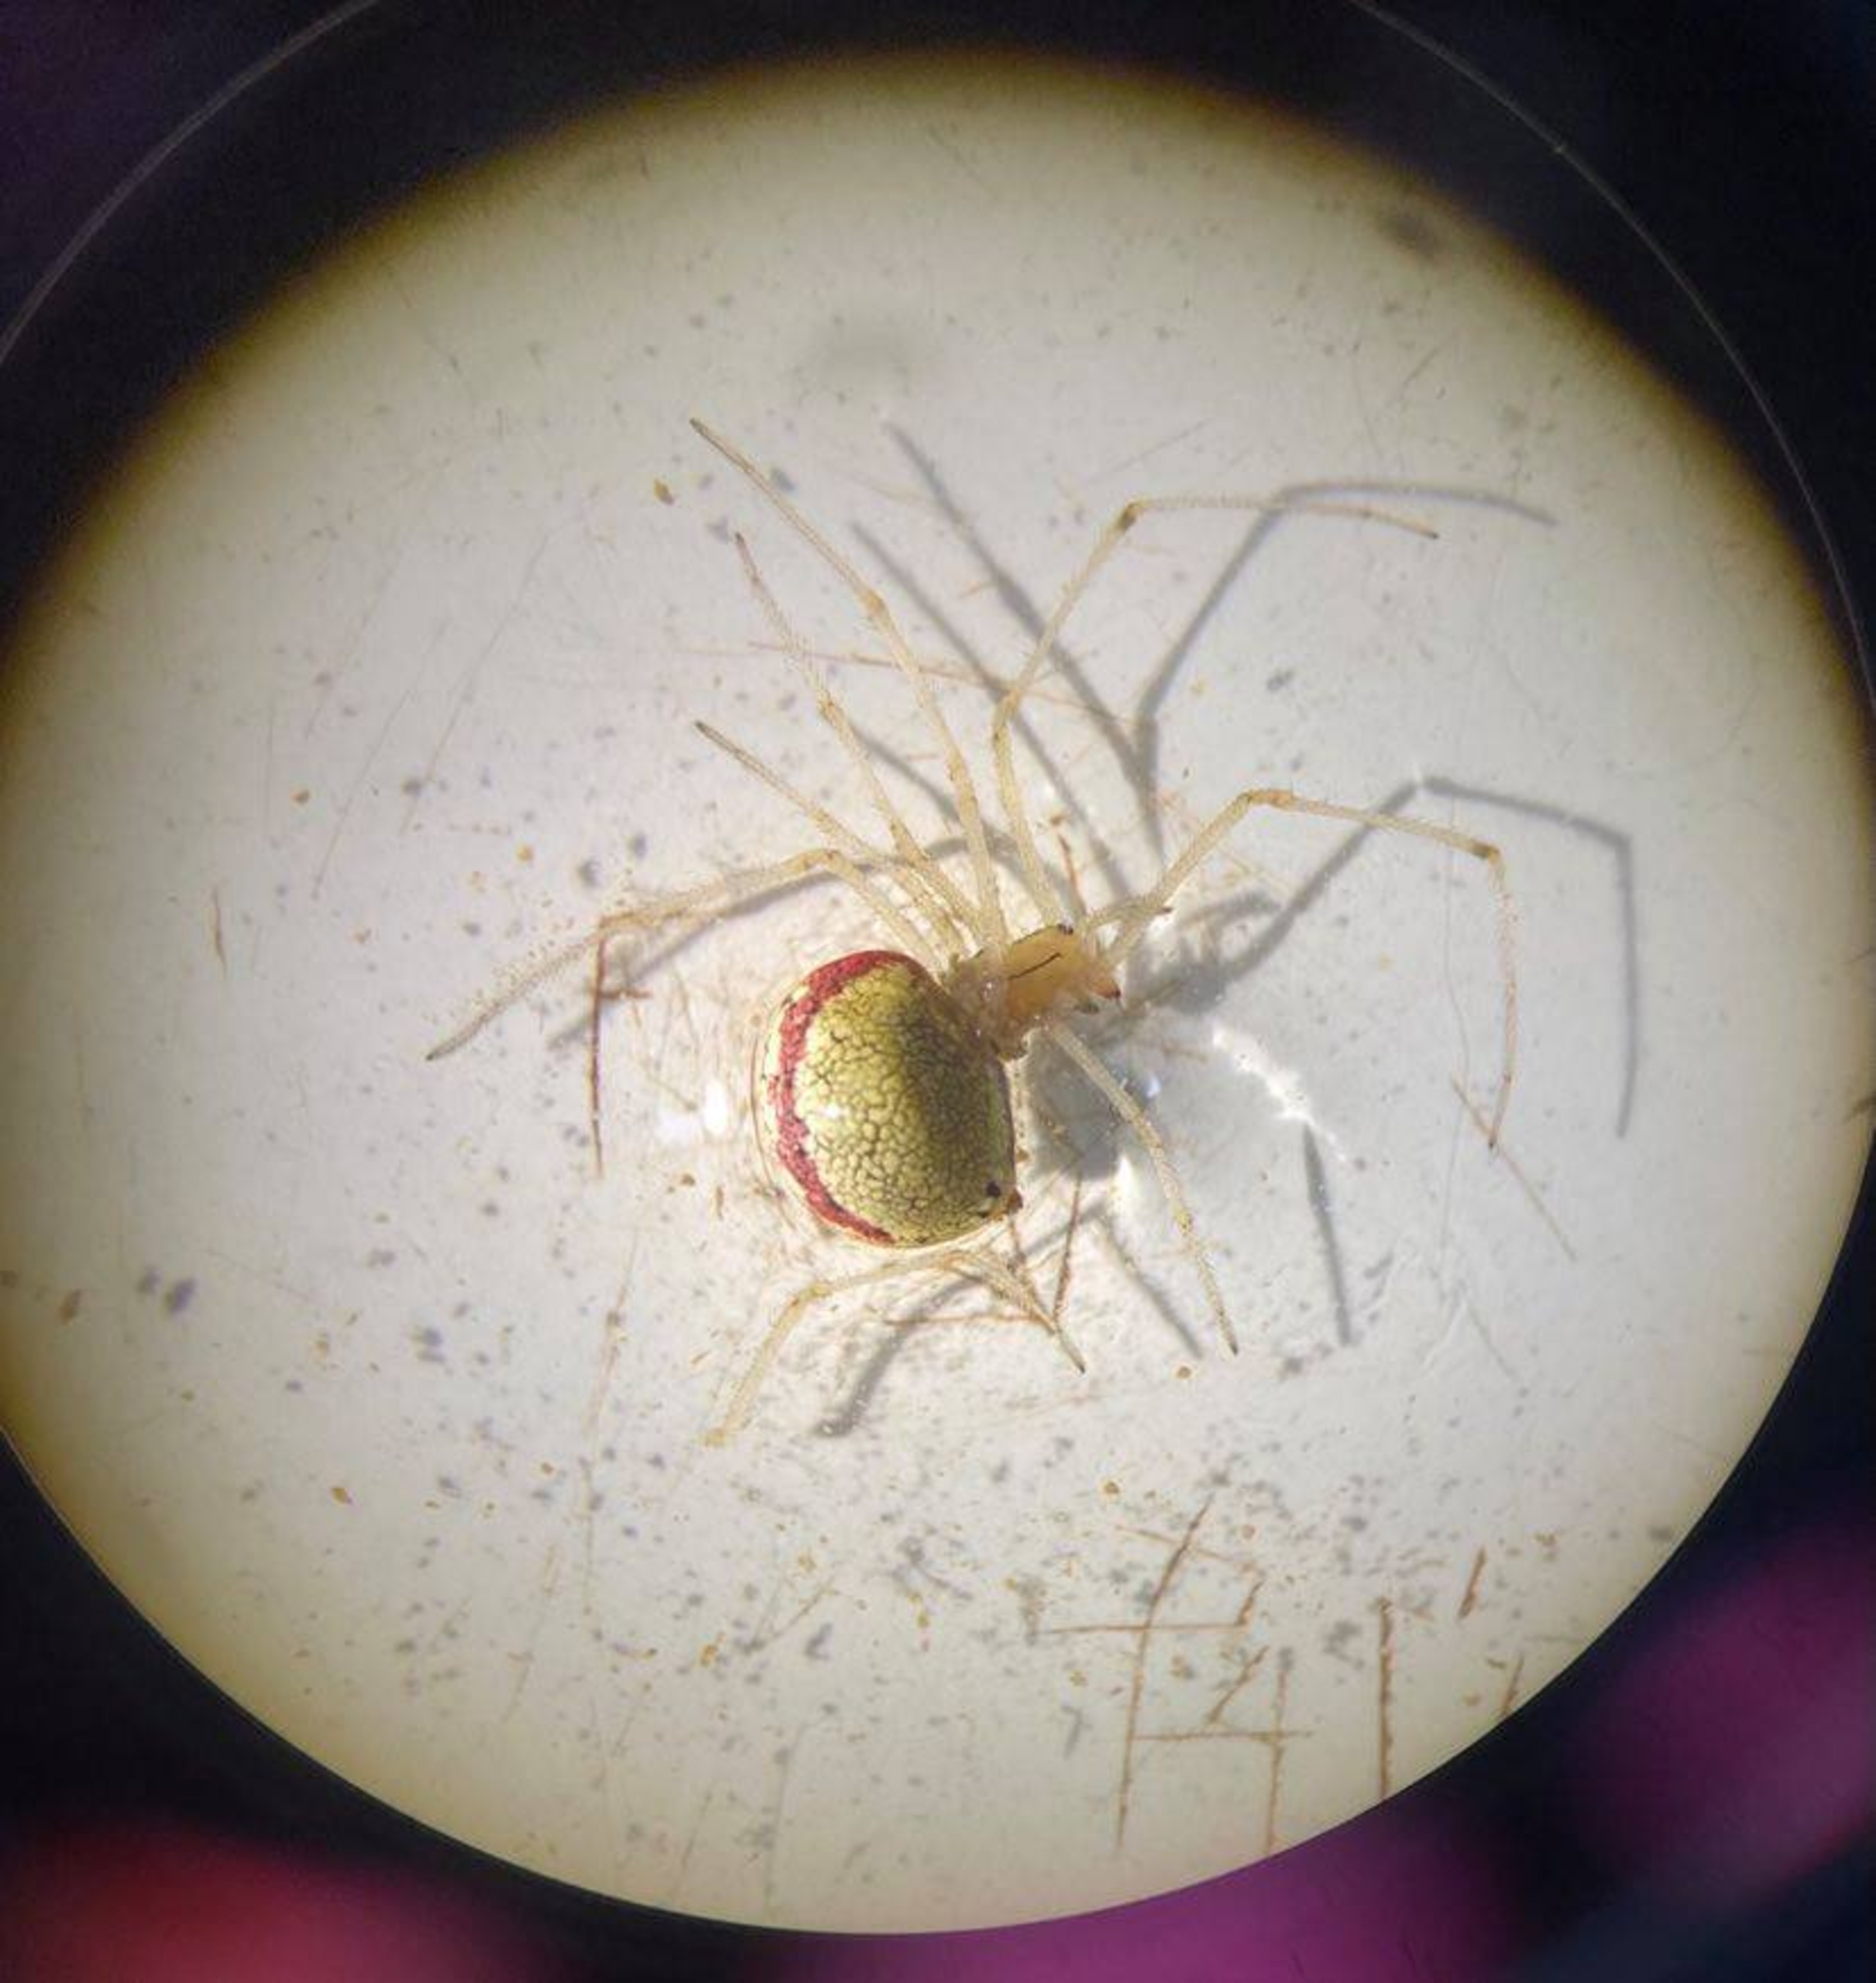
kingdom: Animalia
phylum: Arthropoda
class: Arachnida
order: Araneae
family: Theridiidae
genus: Enoplognatha
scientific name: Enoplognatha
